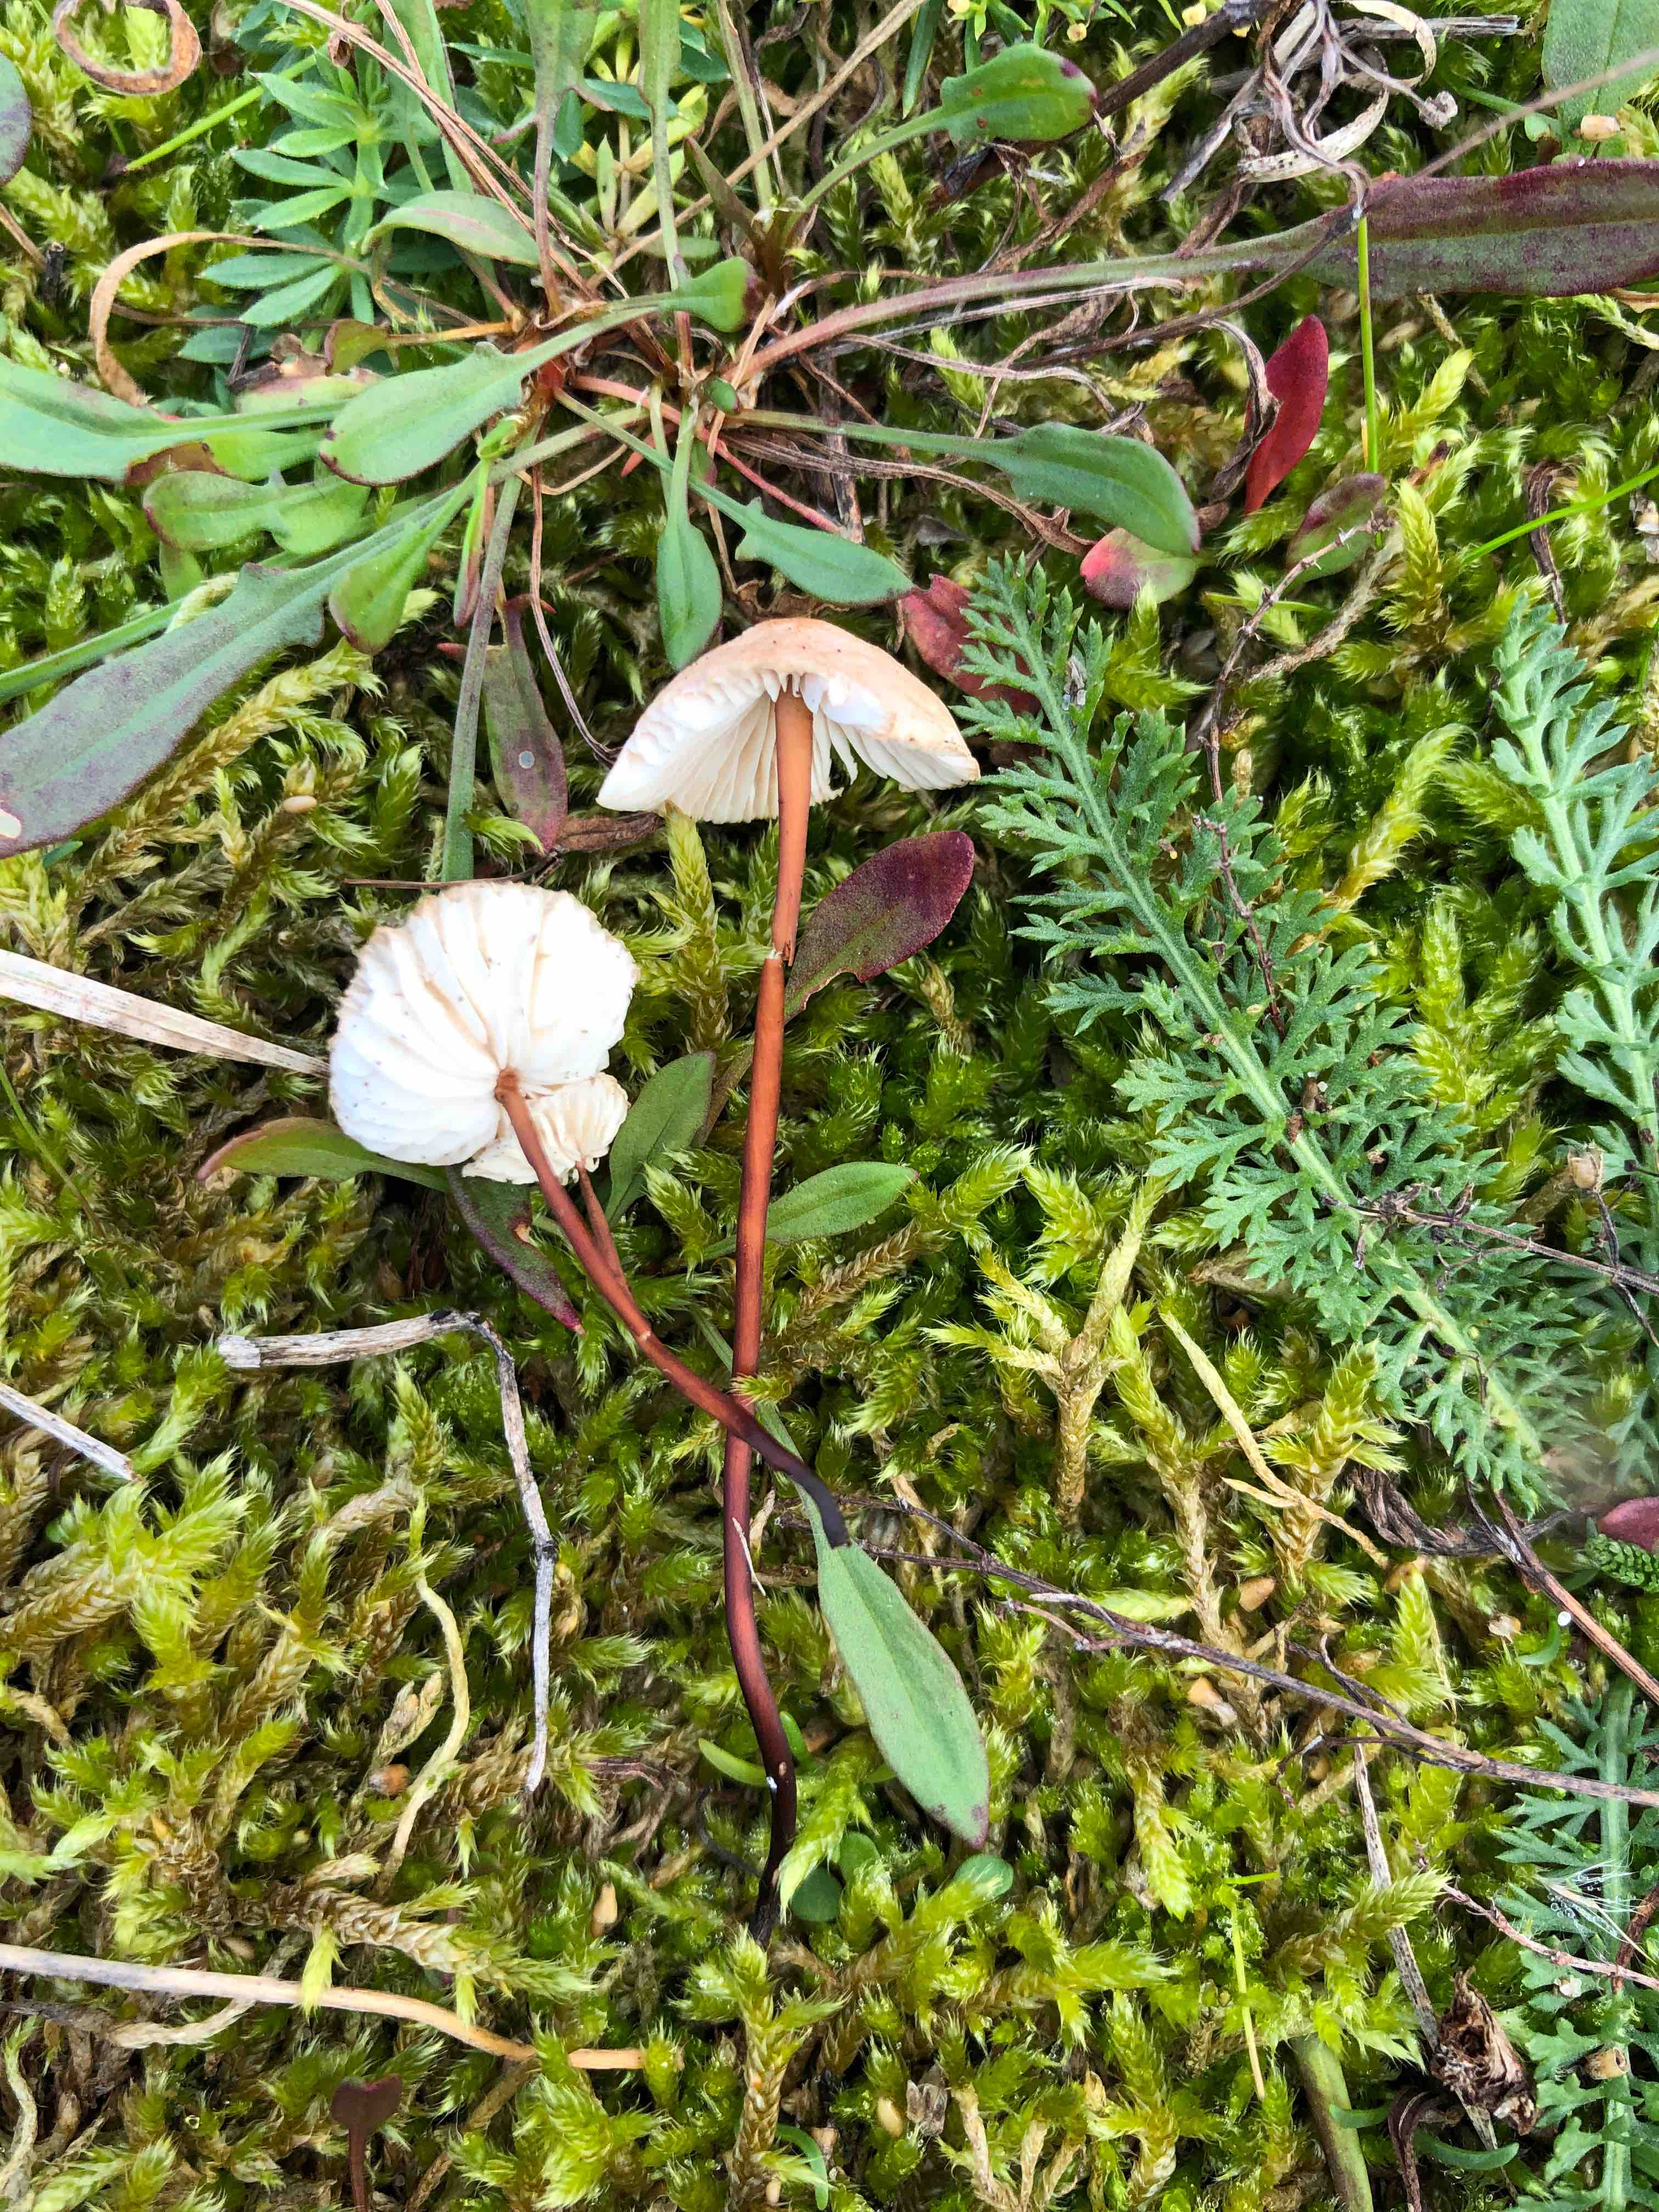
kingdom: Fungi
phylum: Basidiomycota
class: Agaricomycetes
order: Agaricales
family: Omphalotaceae
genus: Mycetinis
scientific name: Mycetinis scorodonius
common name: lille løghat
